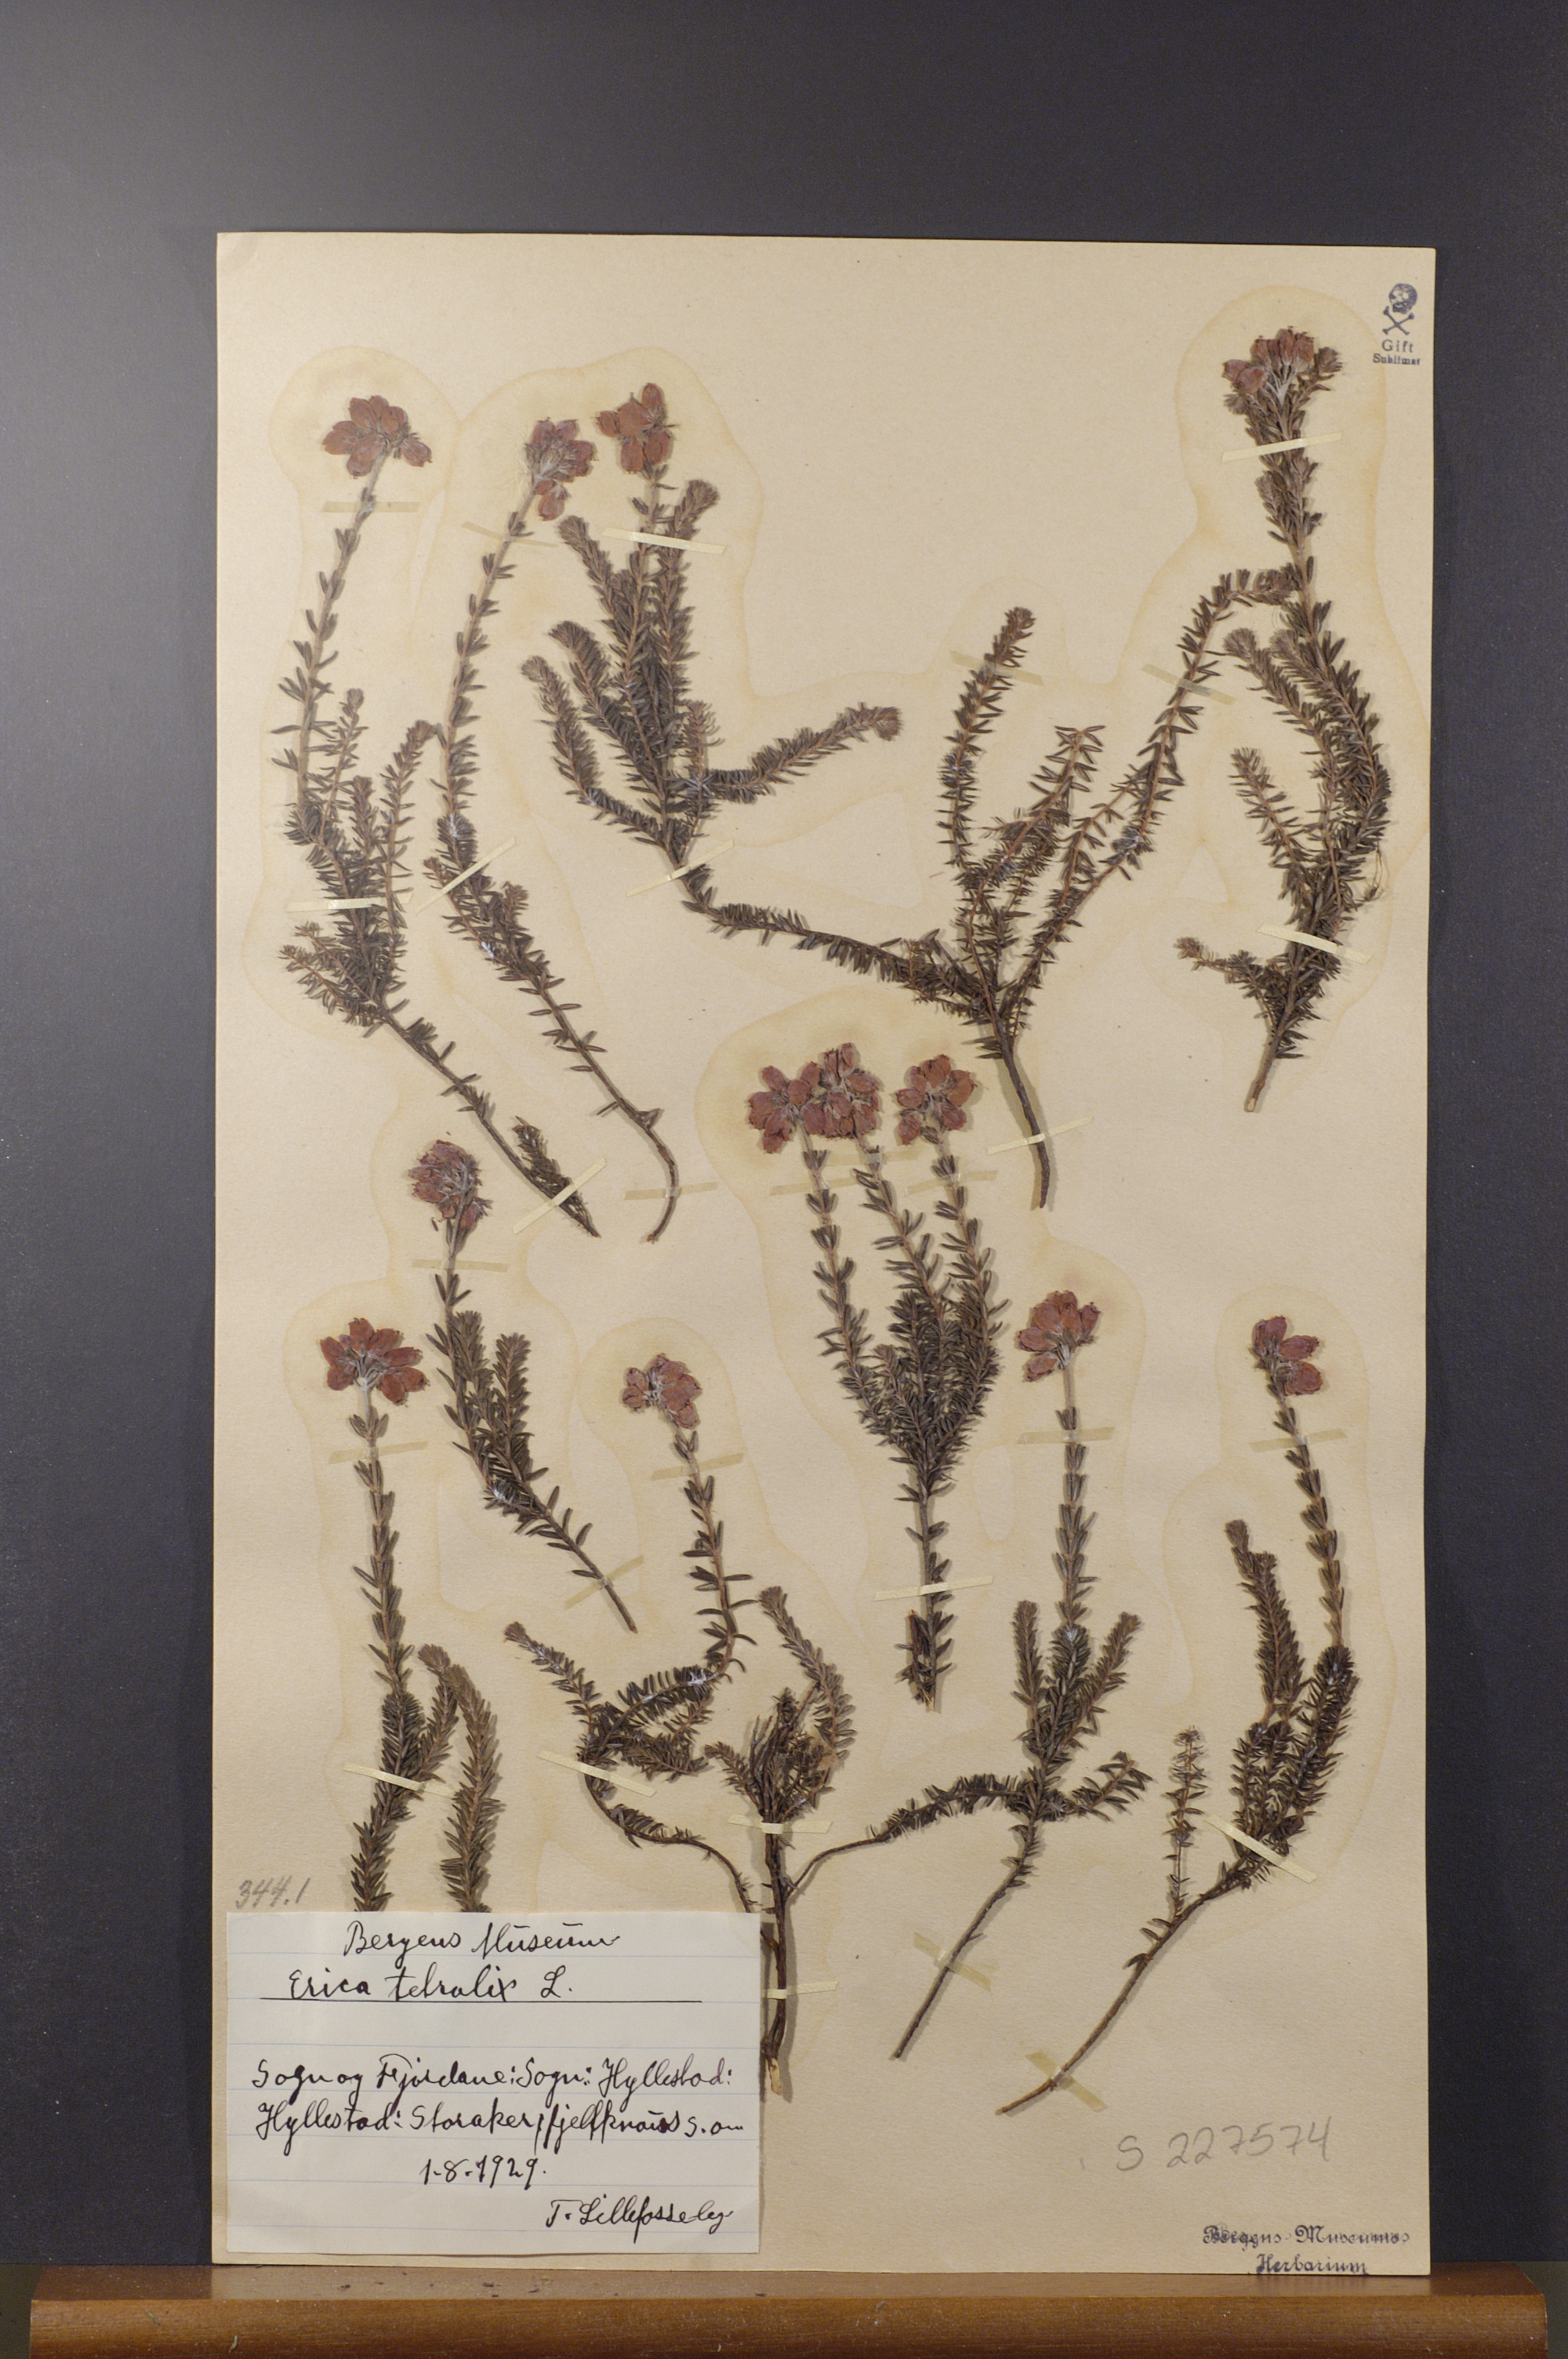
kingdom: Plantae
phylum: Tracheophyta
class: Magnoliopsida
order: Ericales
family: Ericaceae
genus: Erica
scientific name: Erica tetralix
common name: Cross-leaved heath
